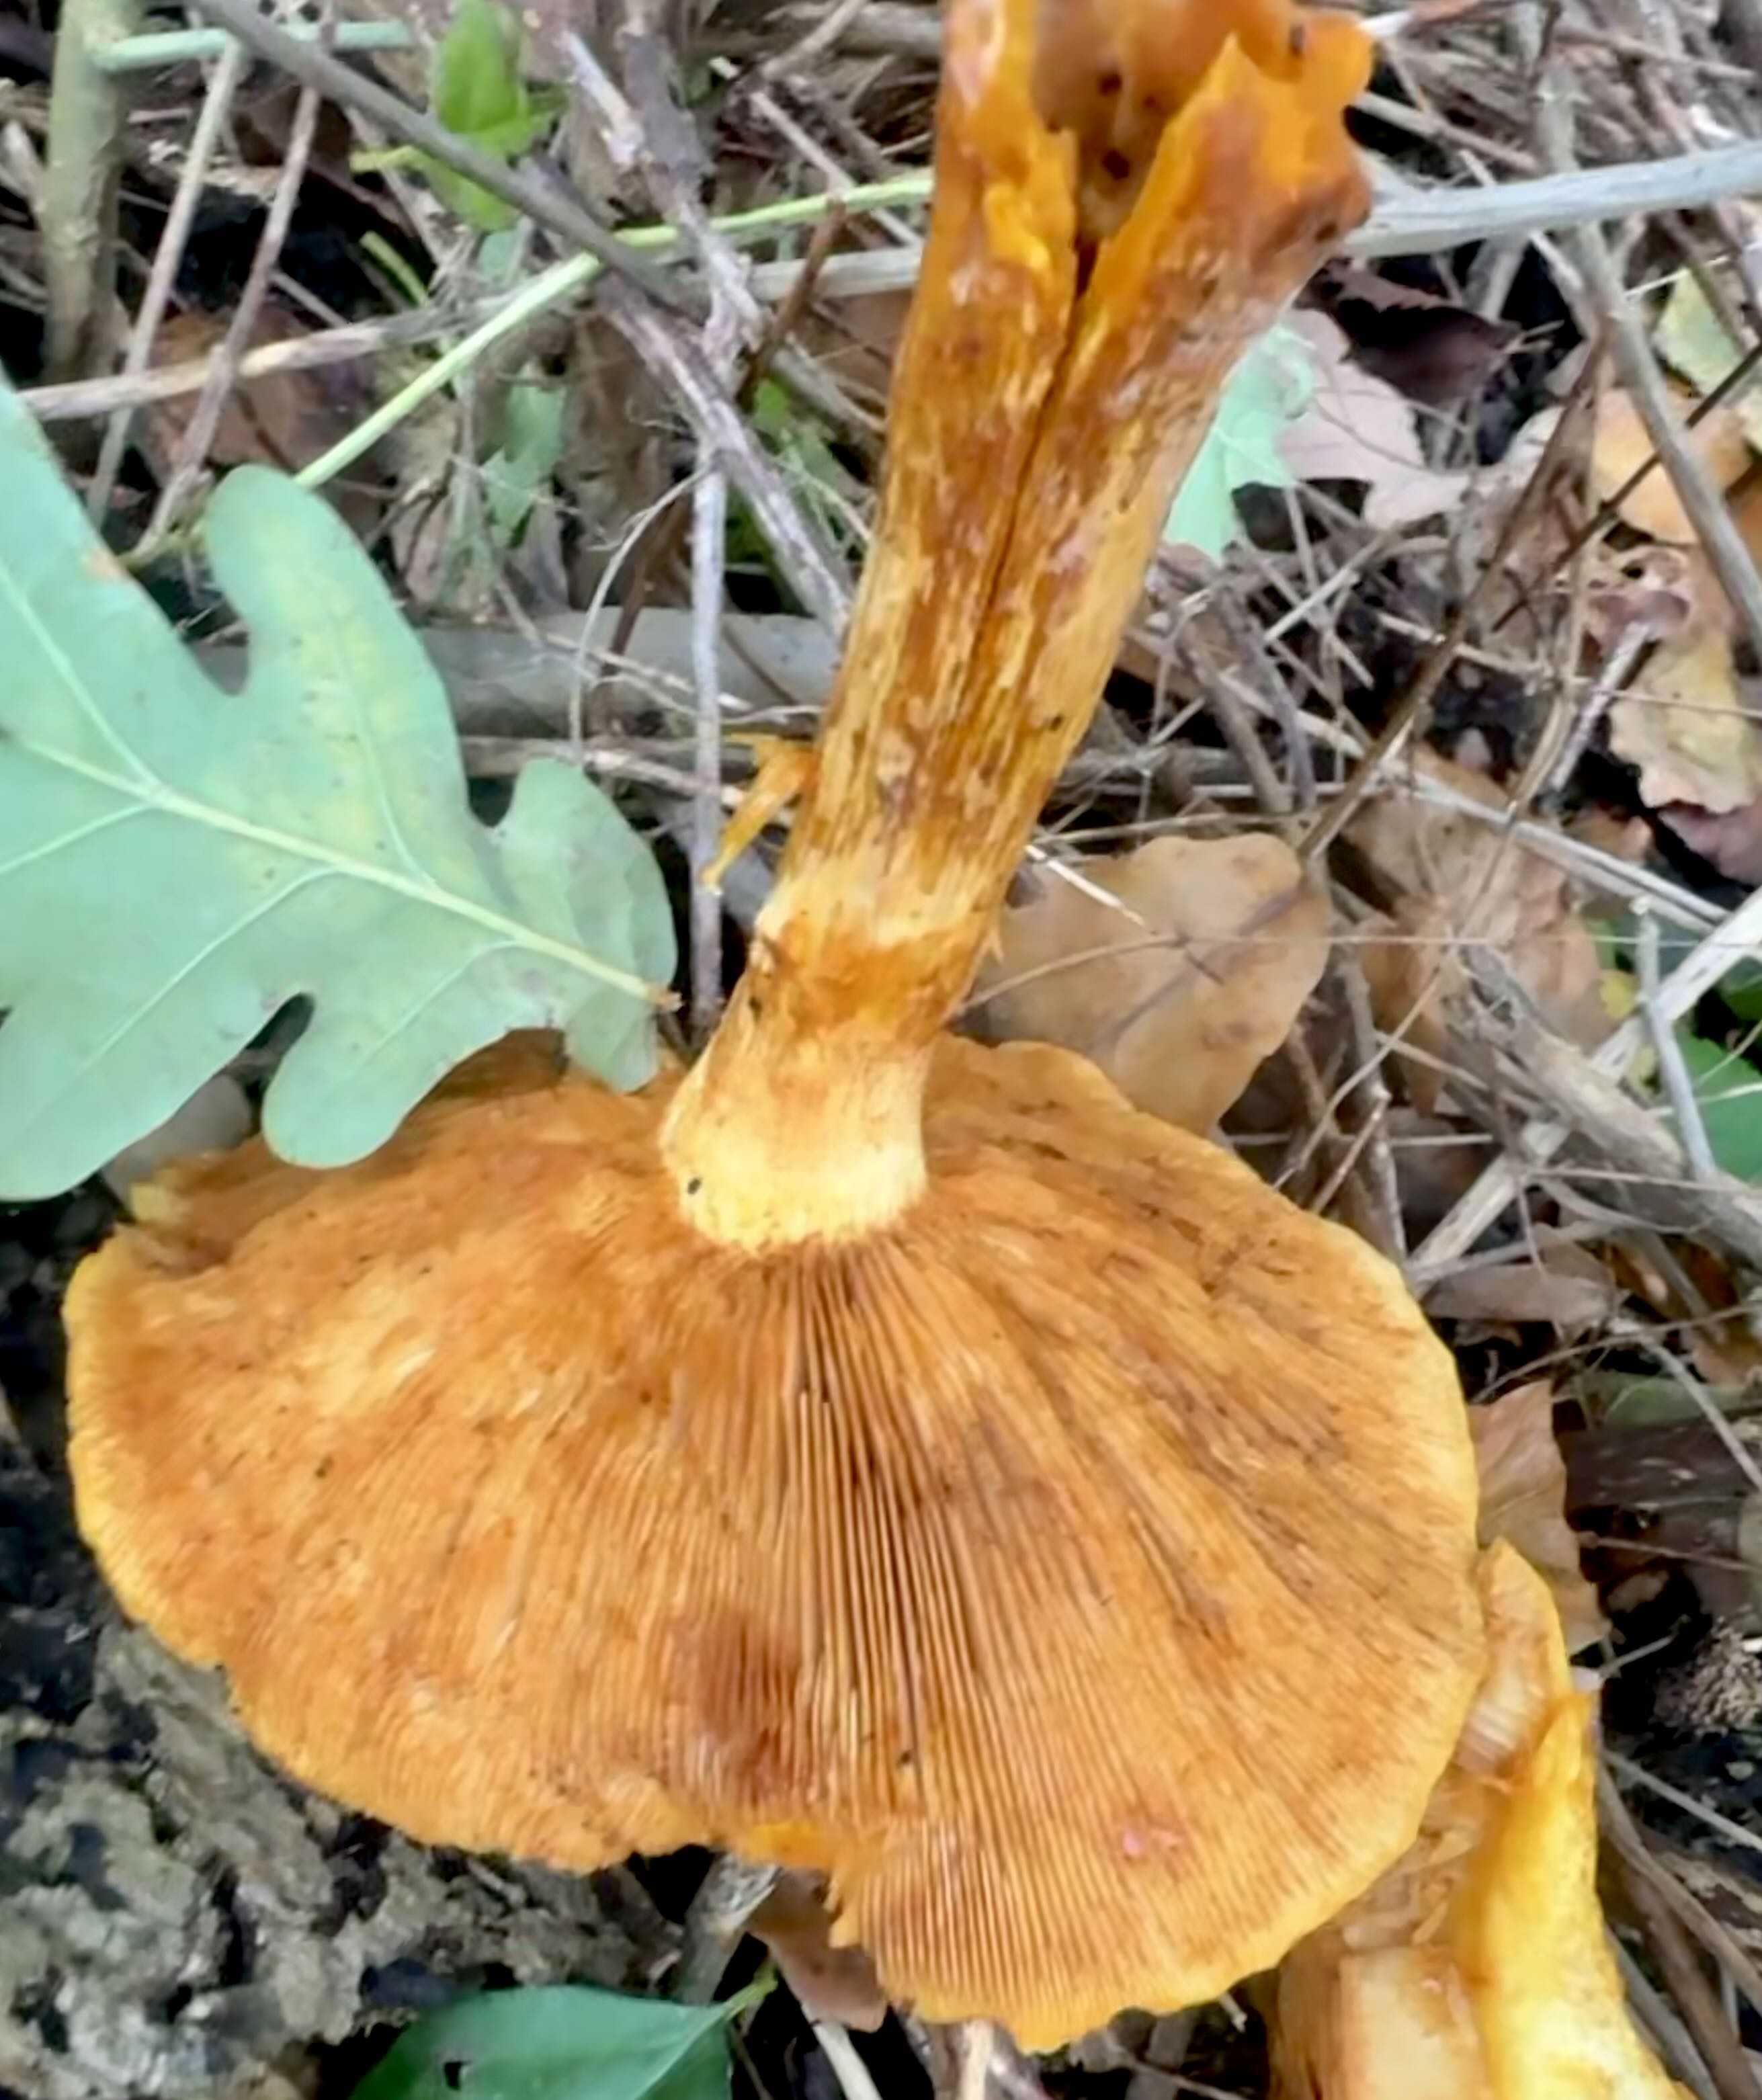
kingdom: Fungi
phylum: Basidiomycota
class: Agaricomycetes
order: Agaricales
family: Hymenogastraceae
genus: Gymnopilus
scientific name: Gymnopilus spectabilis
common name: fibret flammehat
